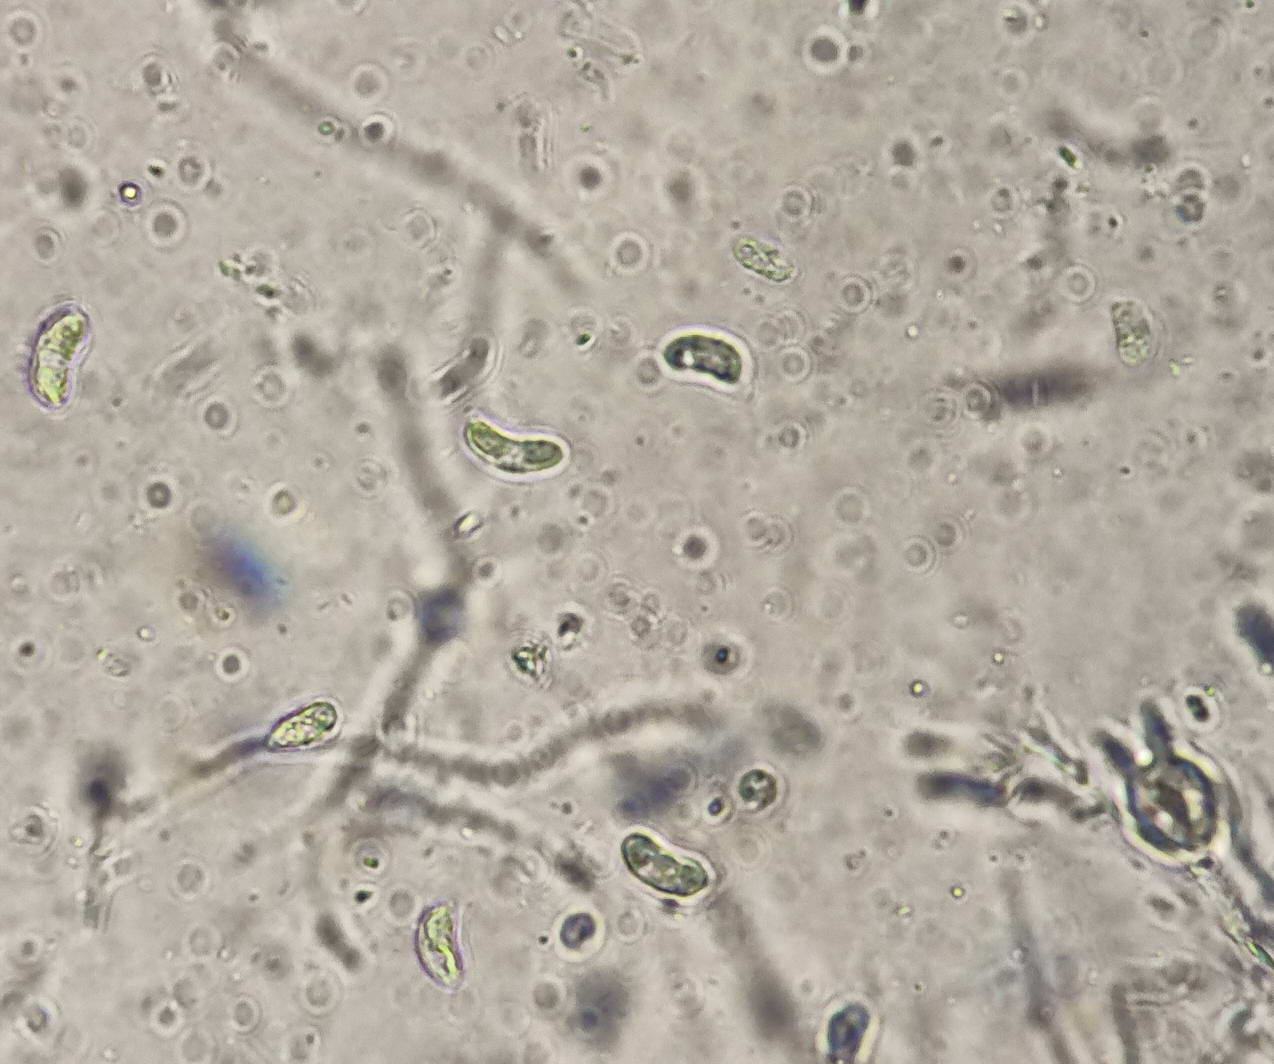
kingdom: Fungi
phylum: Basidiomycota
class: Agaricomycetes
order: Auriculariales
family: Hyaloriaceae
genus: Myxarium
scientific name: Myxarium hyalinum
